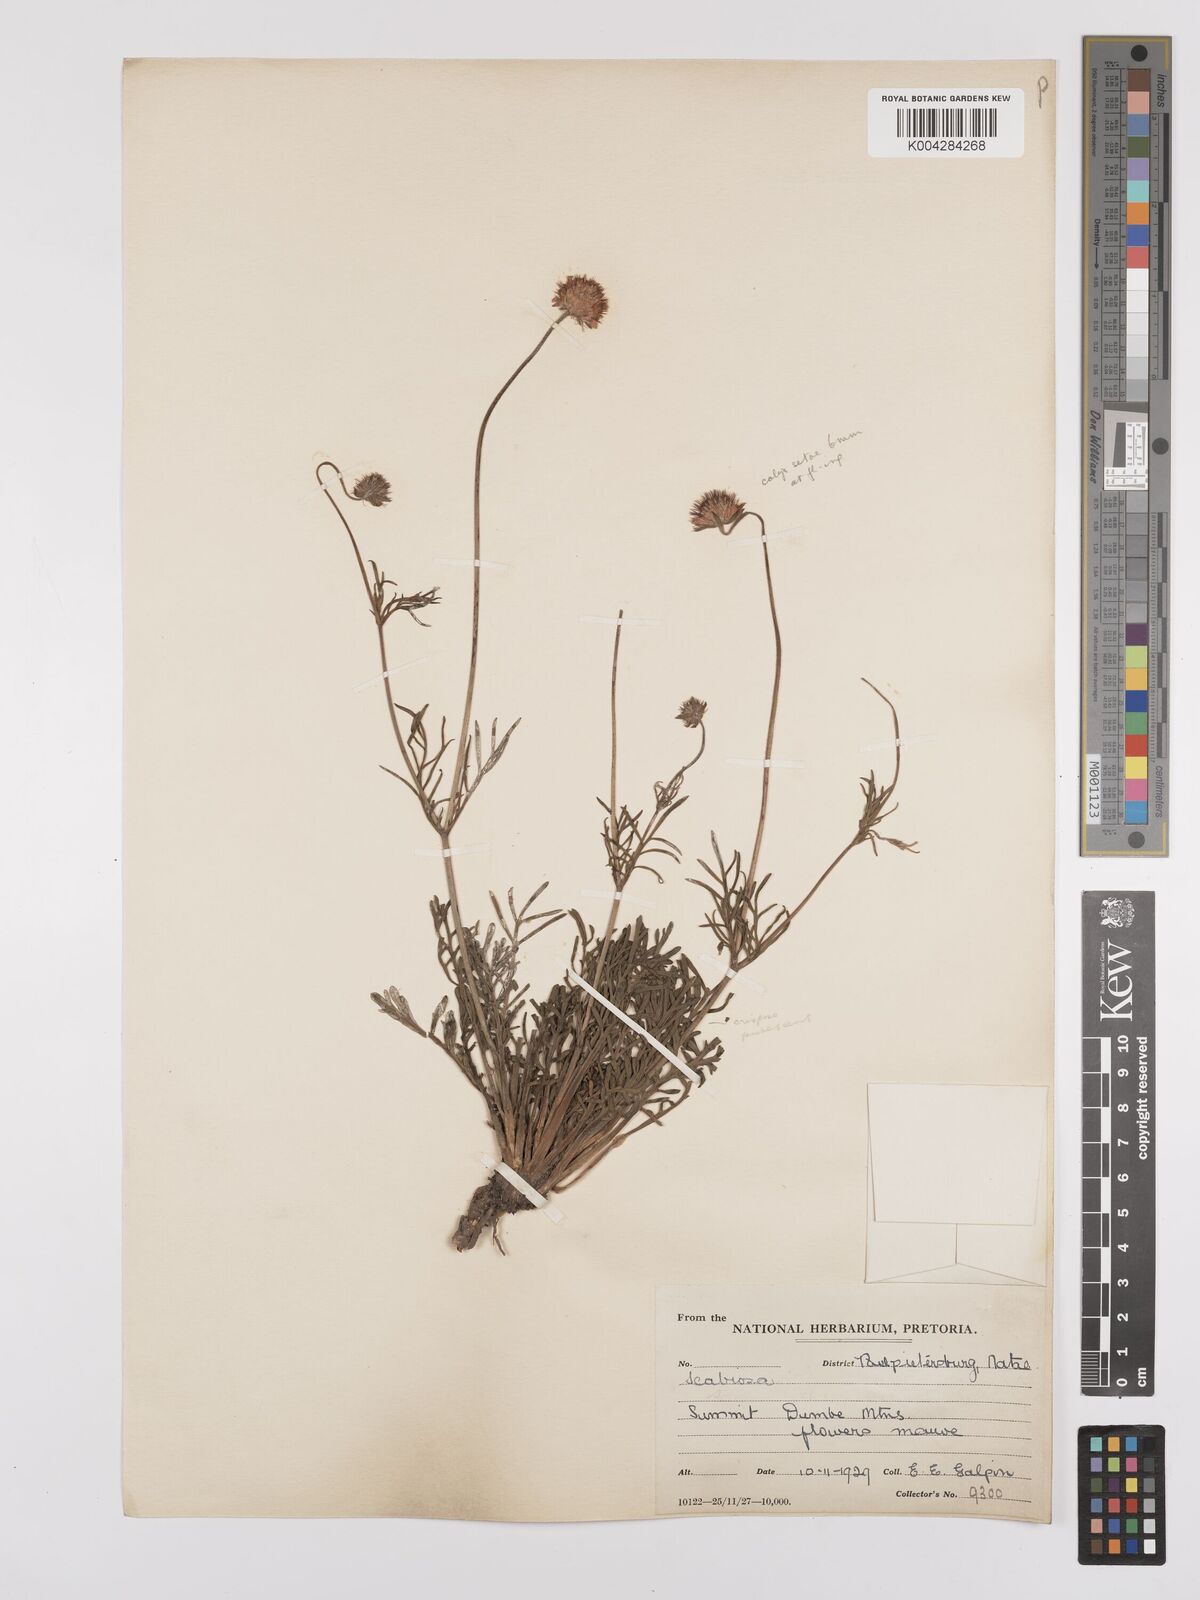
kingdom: Plantae
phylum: Tracheophyta
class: Magnoliopsida
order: Dipsacales
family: Caprifoliaceae
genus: Scabiosa
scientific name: Scabiosa columbaria
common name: Small scabious
